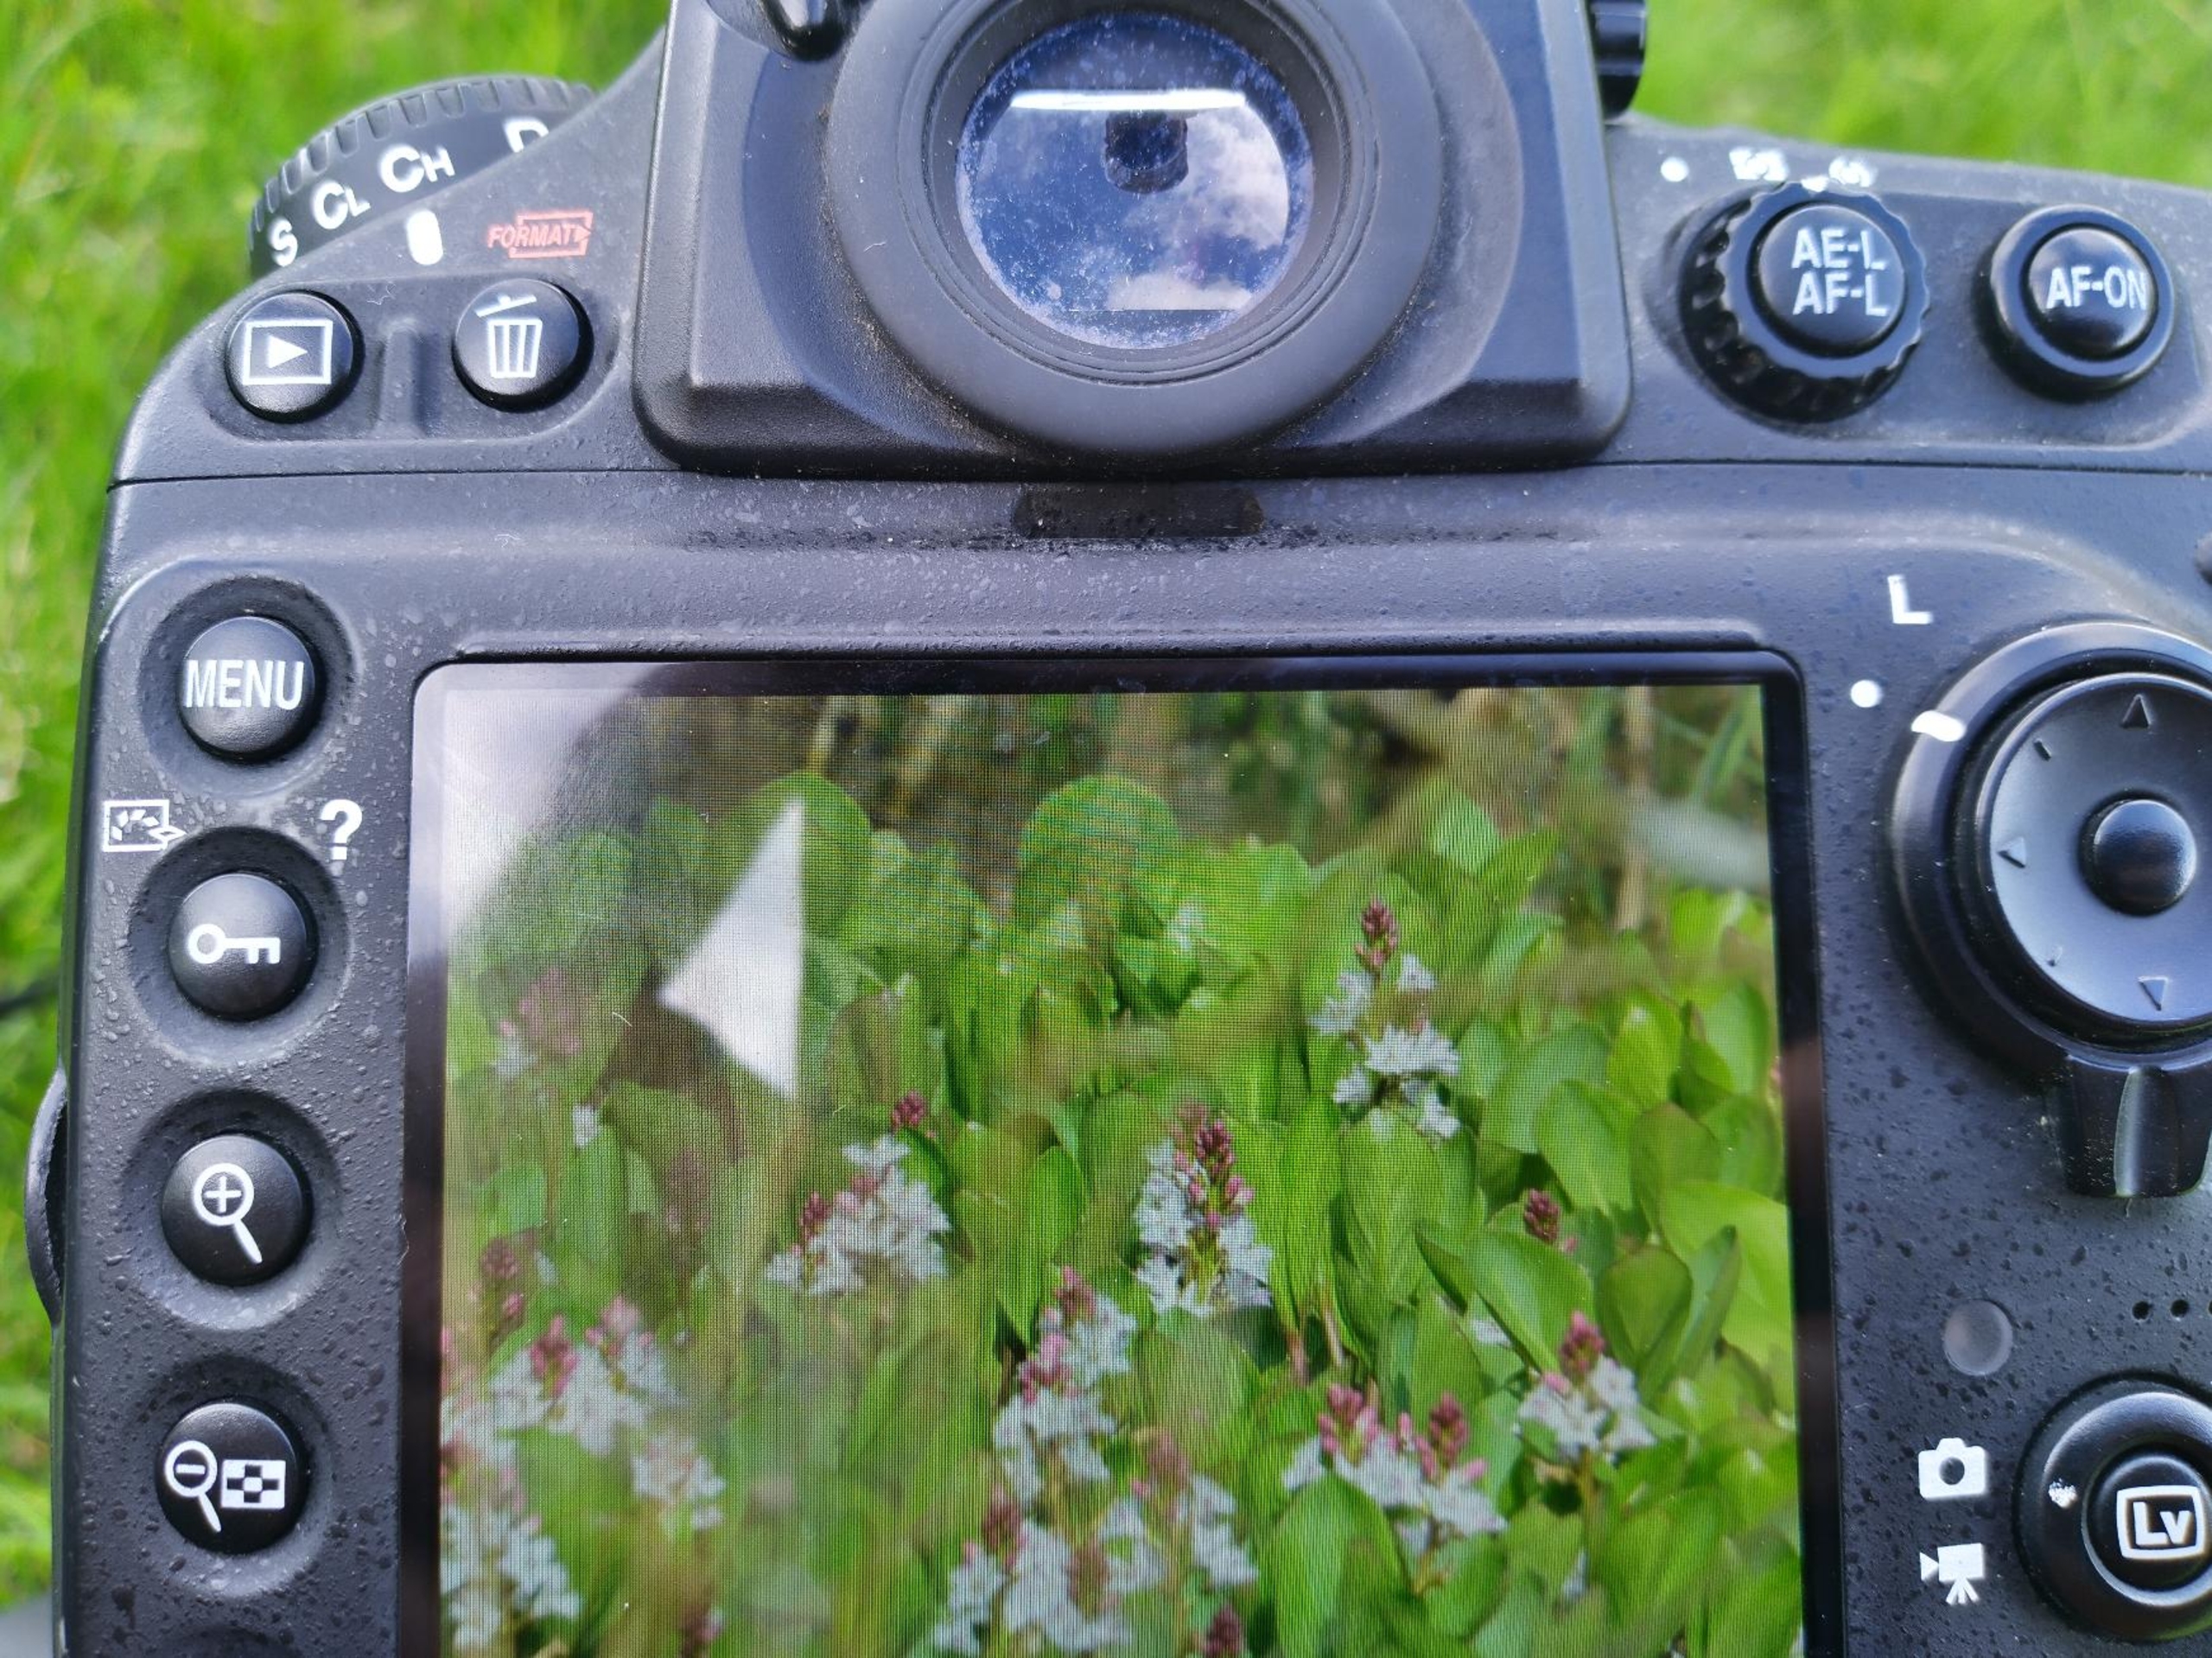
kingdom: Plantae
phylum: Tracheophyta
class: Magnoliopsida
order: Asterales
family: Menyanthaceae
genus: Menyanthes
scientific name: Menyanthes trifoliata
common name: Bukkeblad
